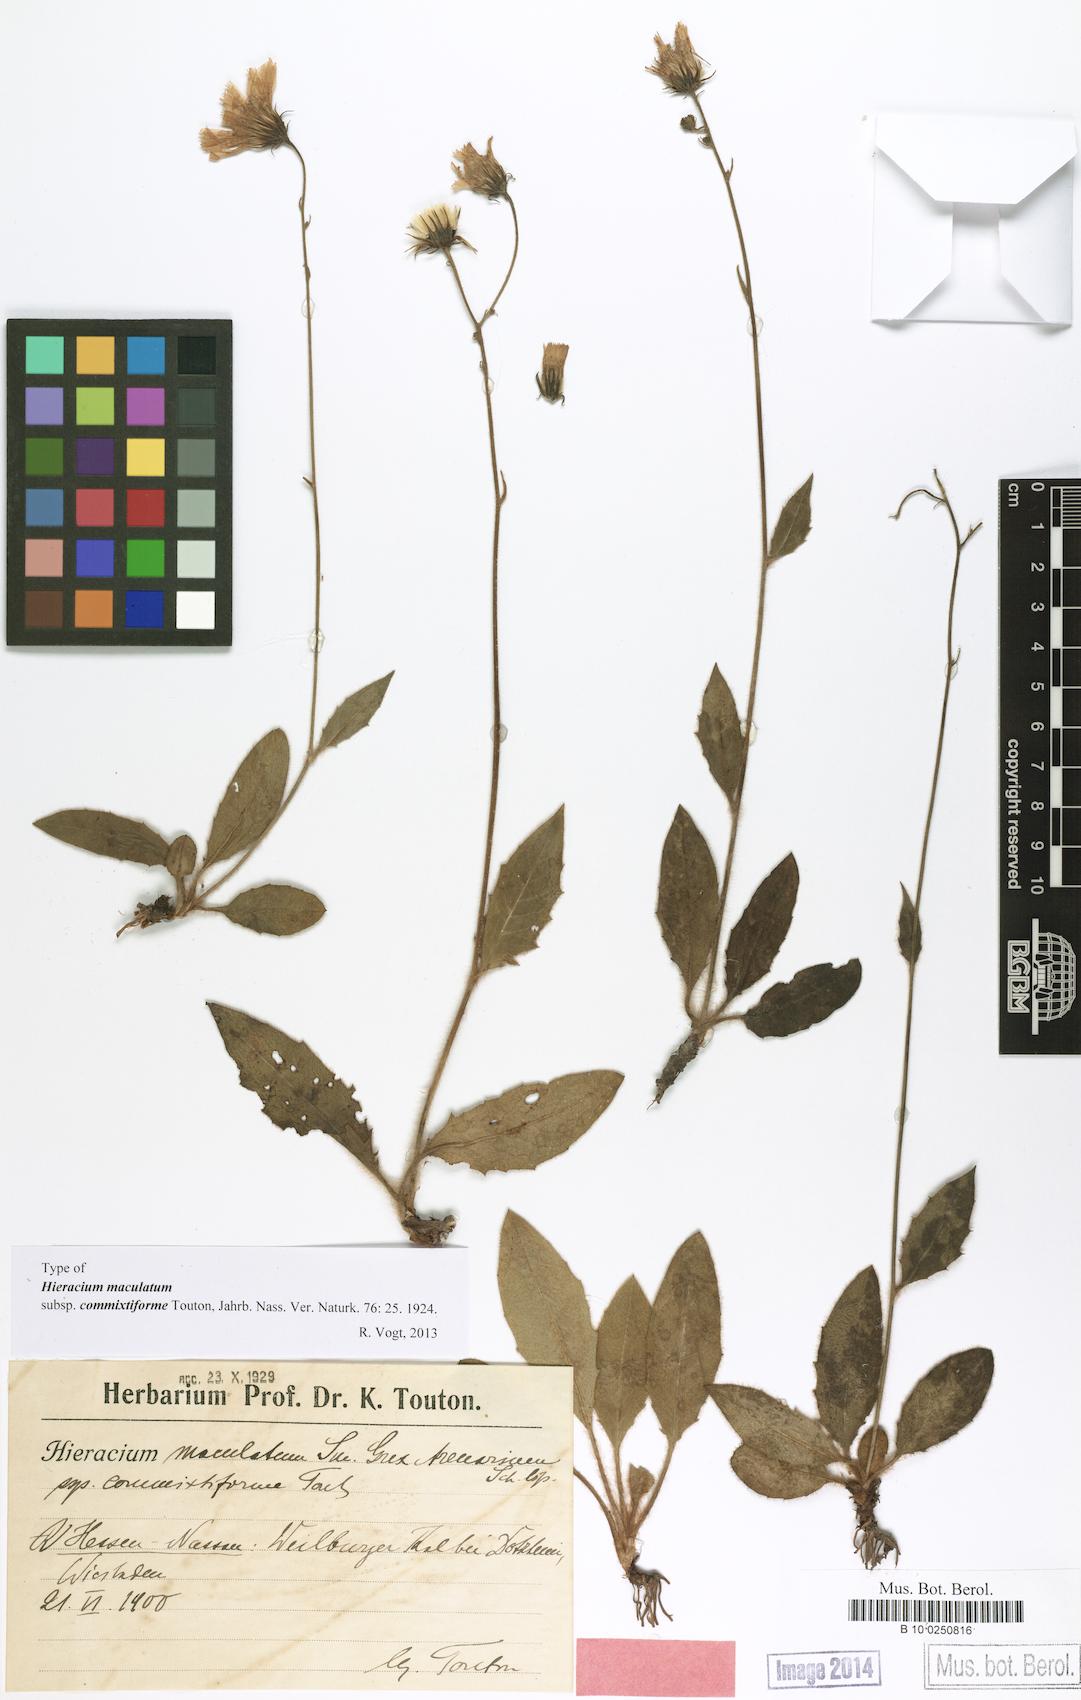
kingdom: Plantae
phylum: Tracheophyta
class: Magnoliopsida
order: Asterales
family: Asteraceae
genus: Hieracium
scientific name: Hieracium maculatum
